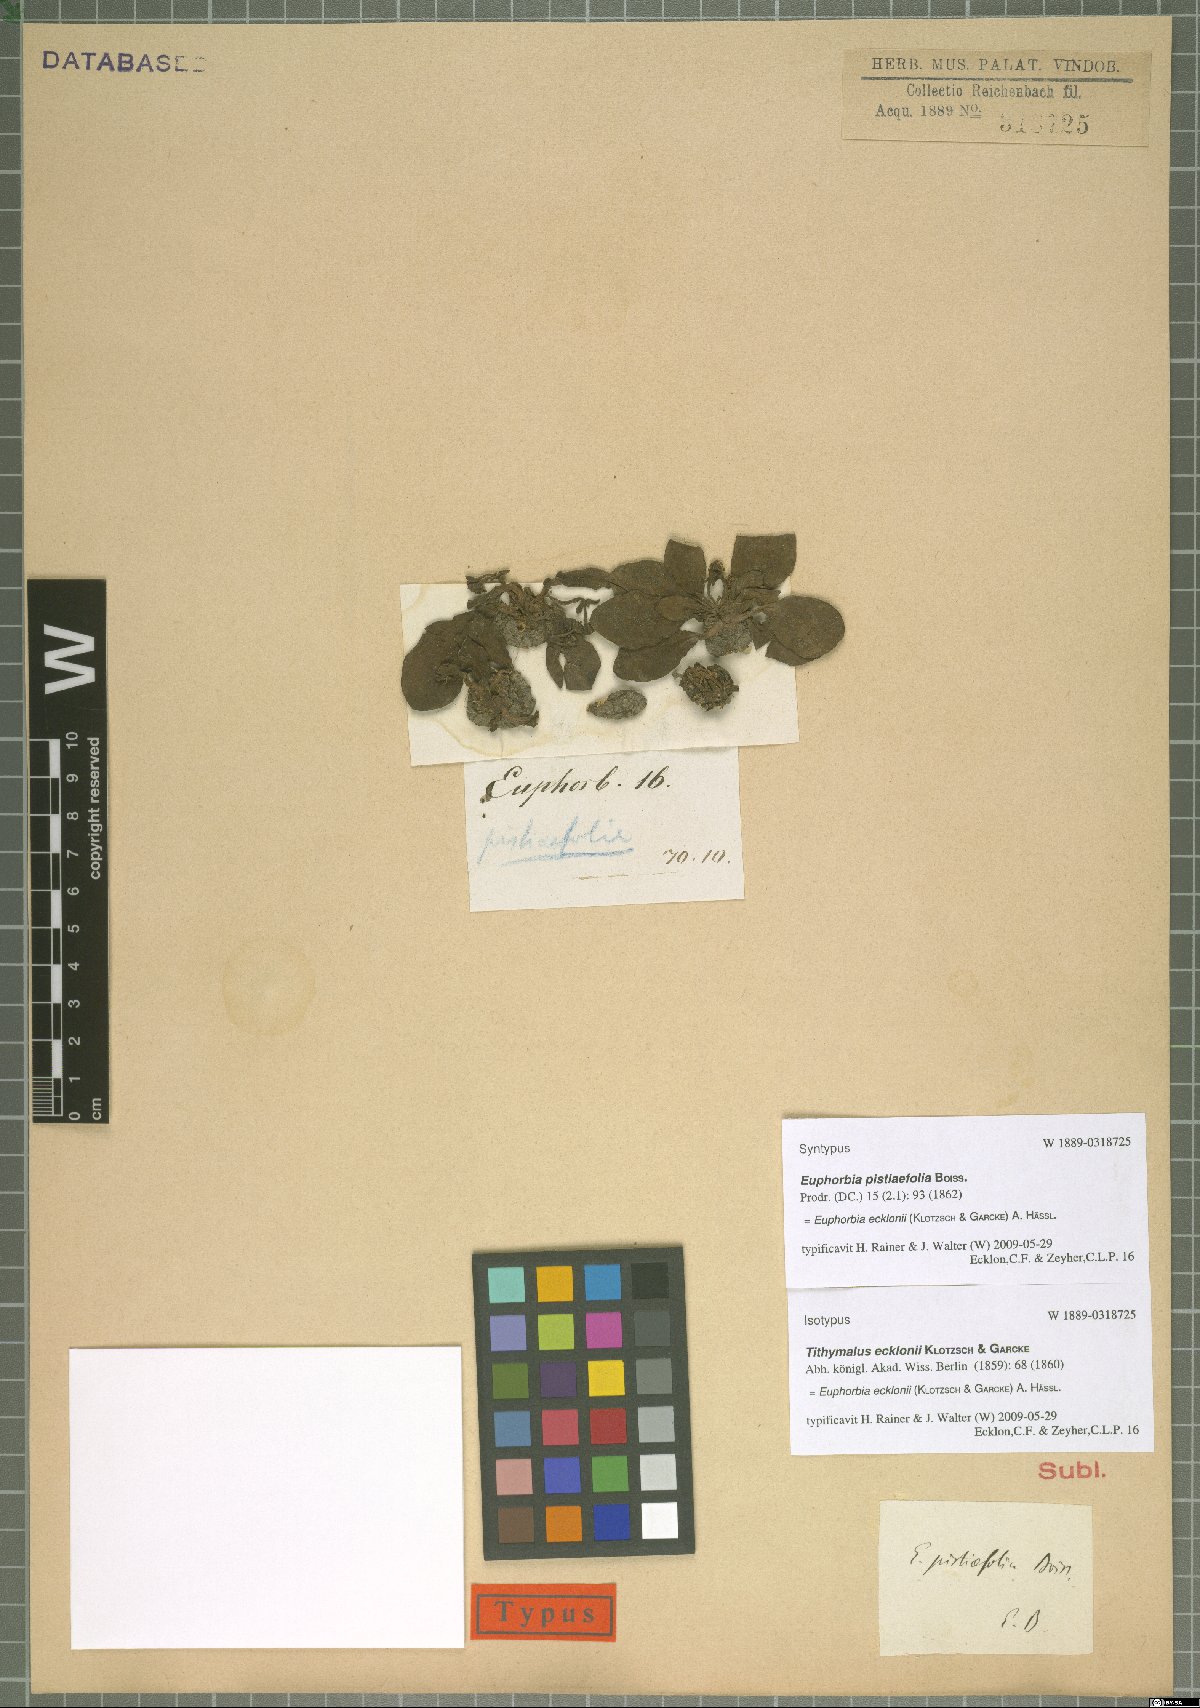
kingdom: Plantae
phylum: Tracheophyta
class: Magnoliopsida
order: Malpighiales
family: Euphorbiaceae
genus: Euphorbia
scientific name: Euphorbia ecklonii
